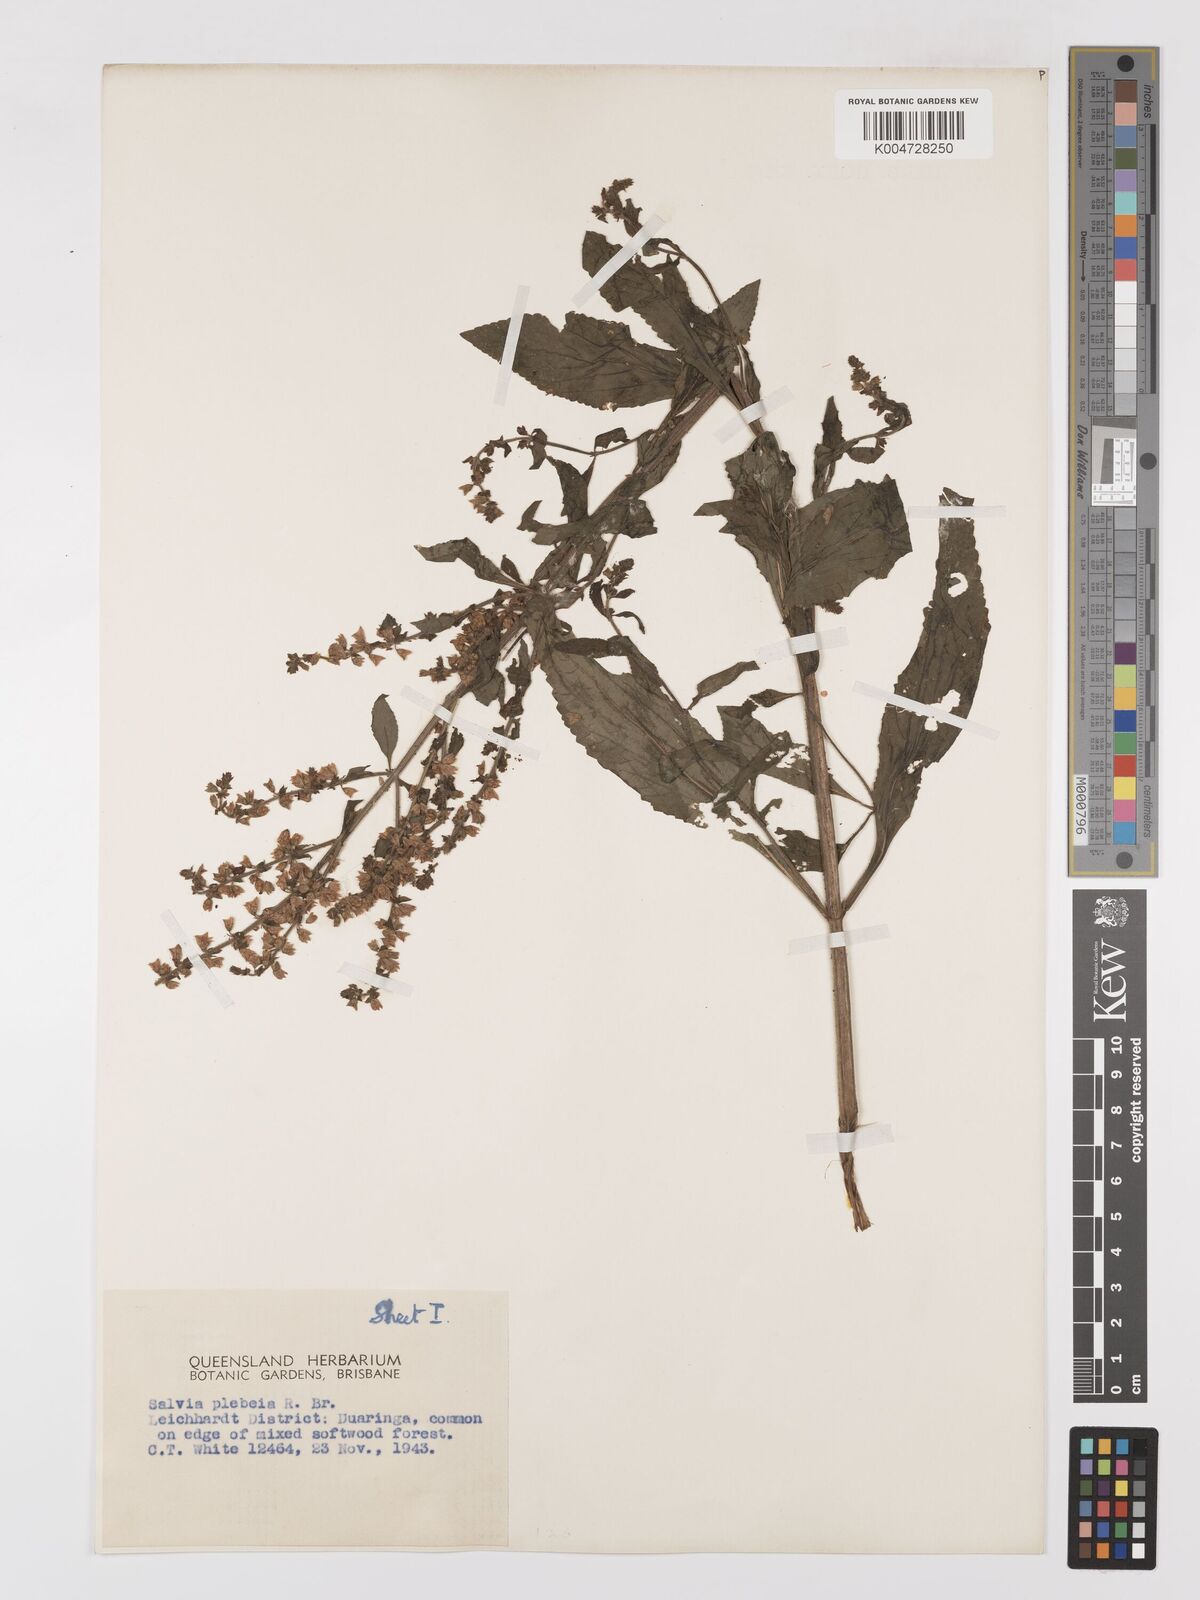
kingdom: Plantae
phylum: Tracheophyta
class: Magnoliopsida
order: Lamiales
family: Lamiaceae
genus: Salvia
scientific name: Salvia plebeia
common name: Australian sage
